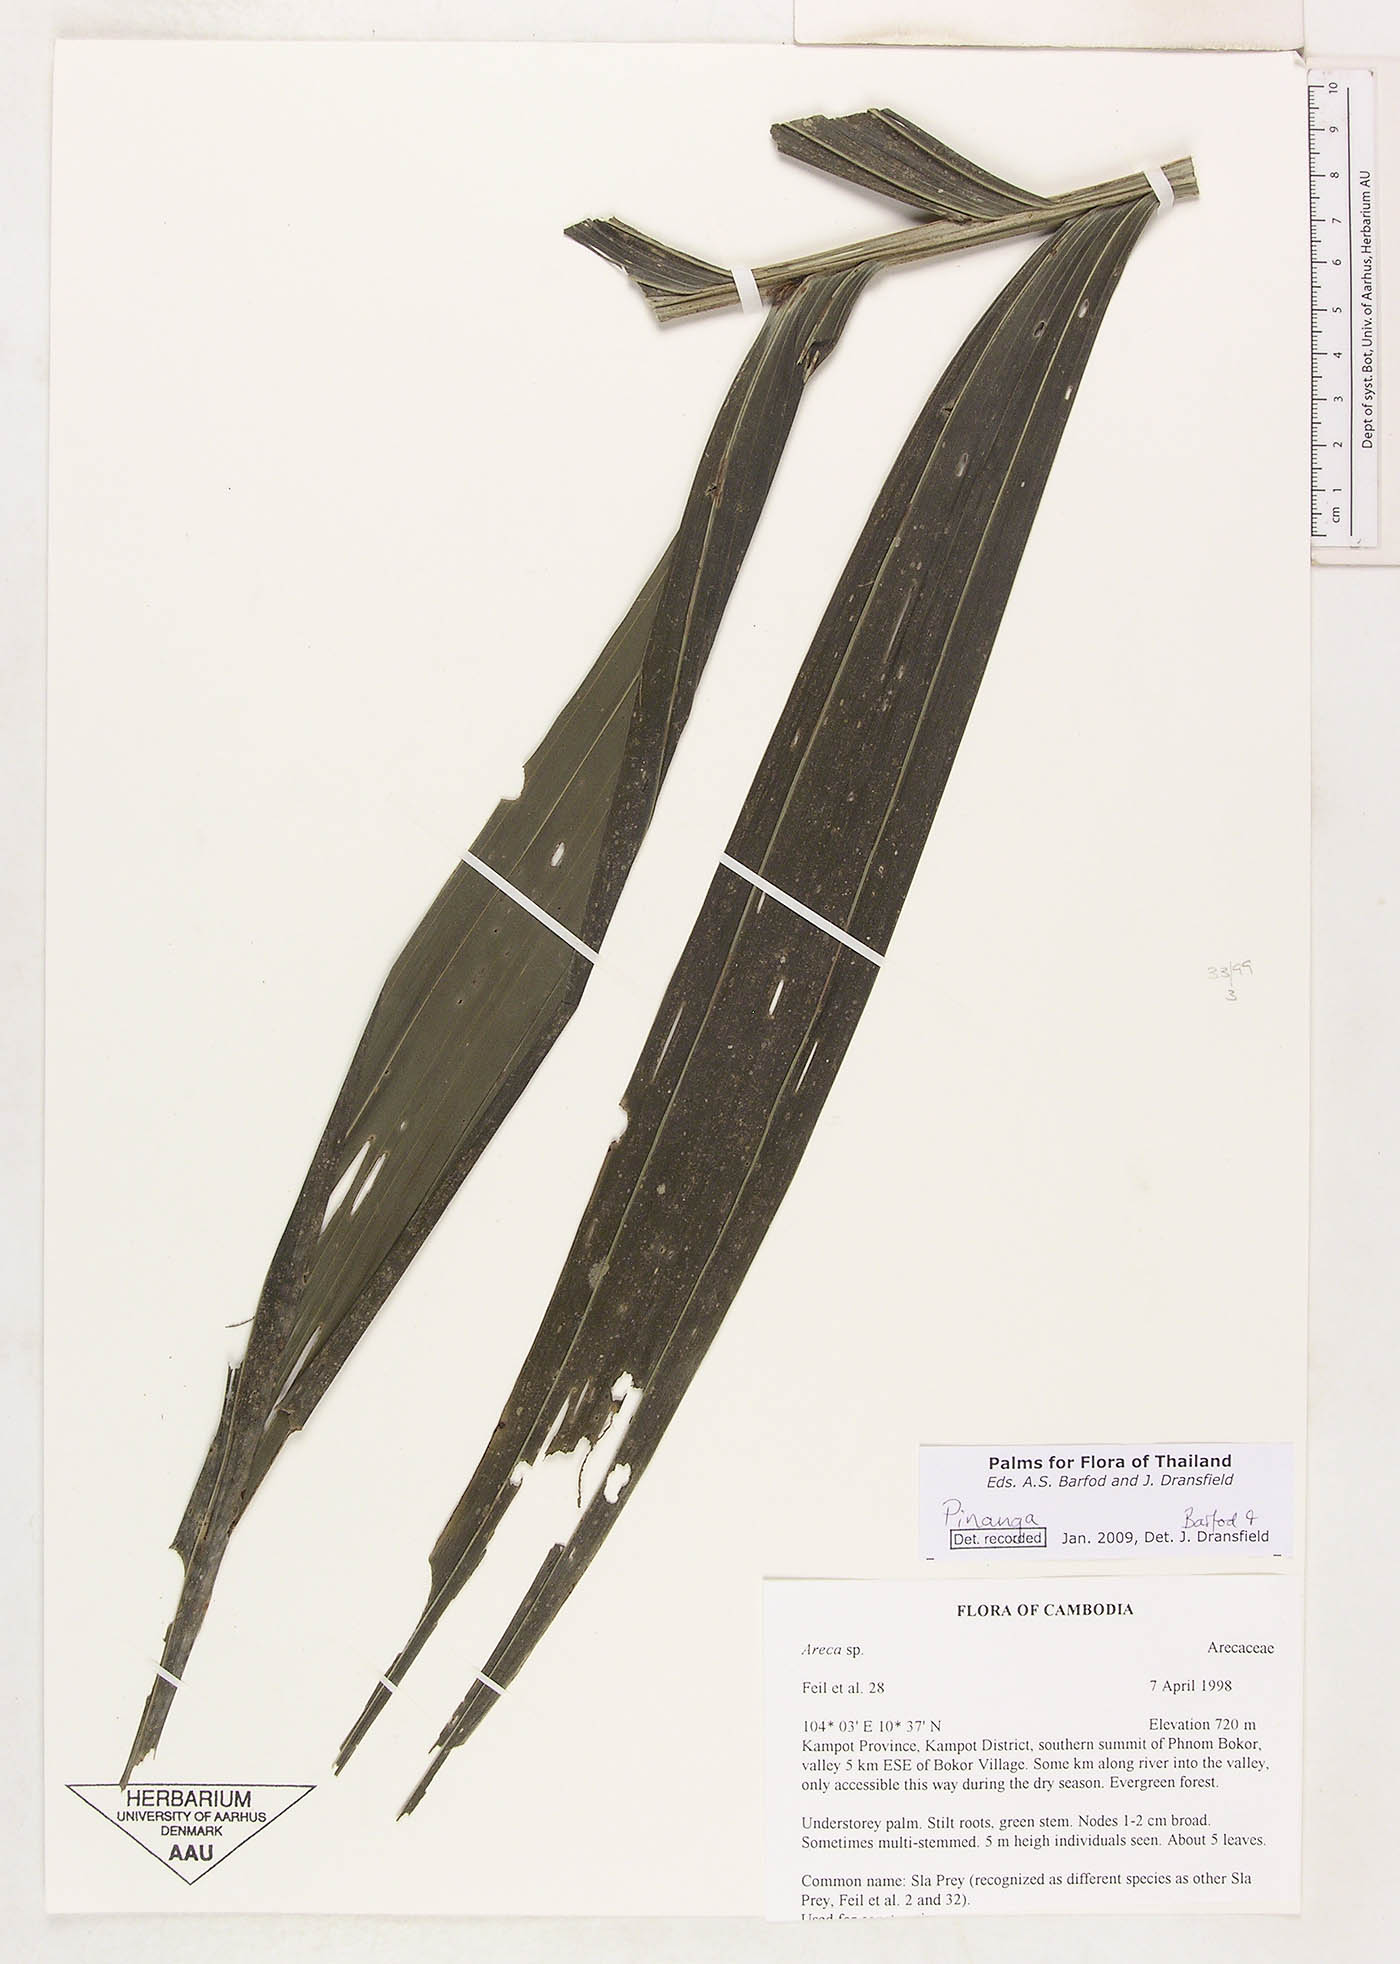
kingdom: Plantae
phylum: Tracheophyta
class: Liliopsida
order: Arecales
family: Arecaceae
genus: Pinanga
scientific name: Pinanga
